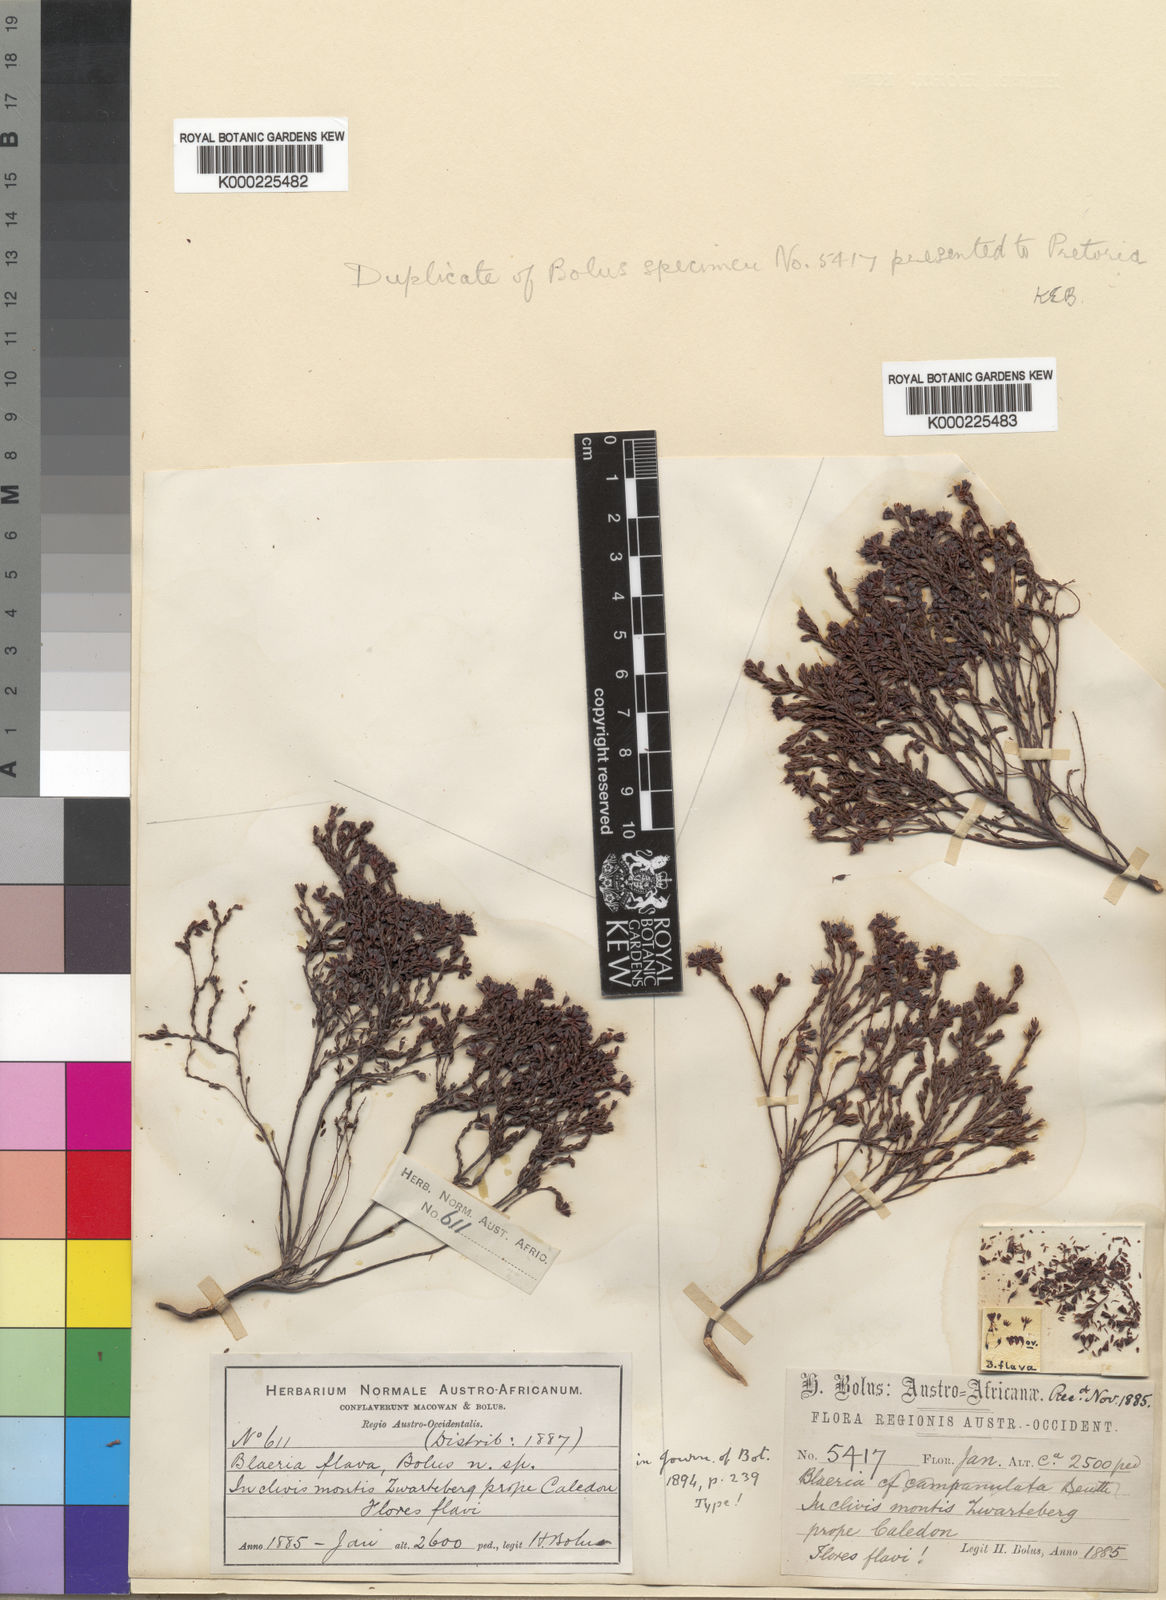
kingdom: Plantae
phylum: Tracheophyta
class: Magnoliopsida
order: Ericales
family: Ericaceae
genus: Erica
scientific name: Erica equisetifolia
